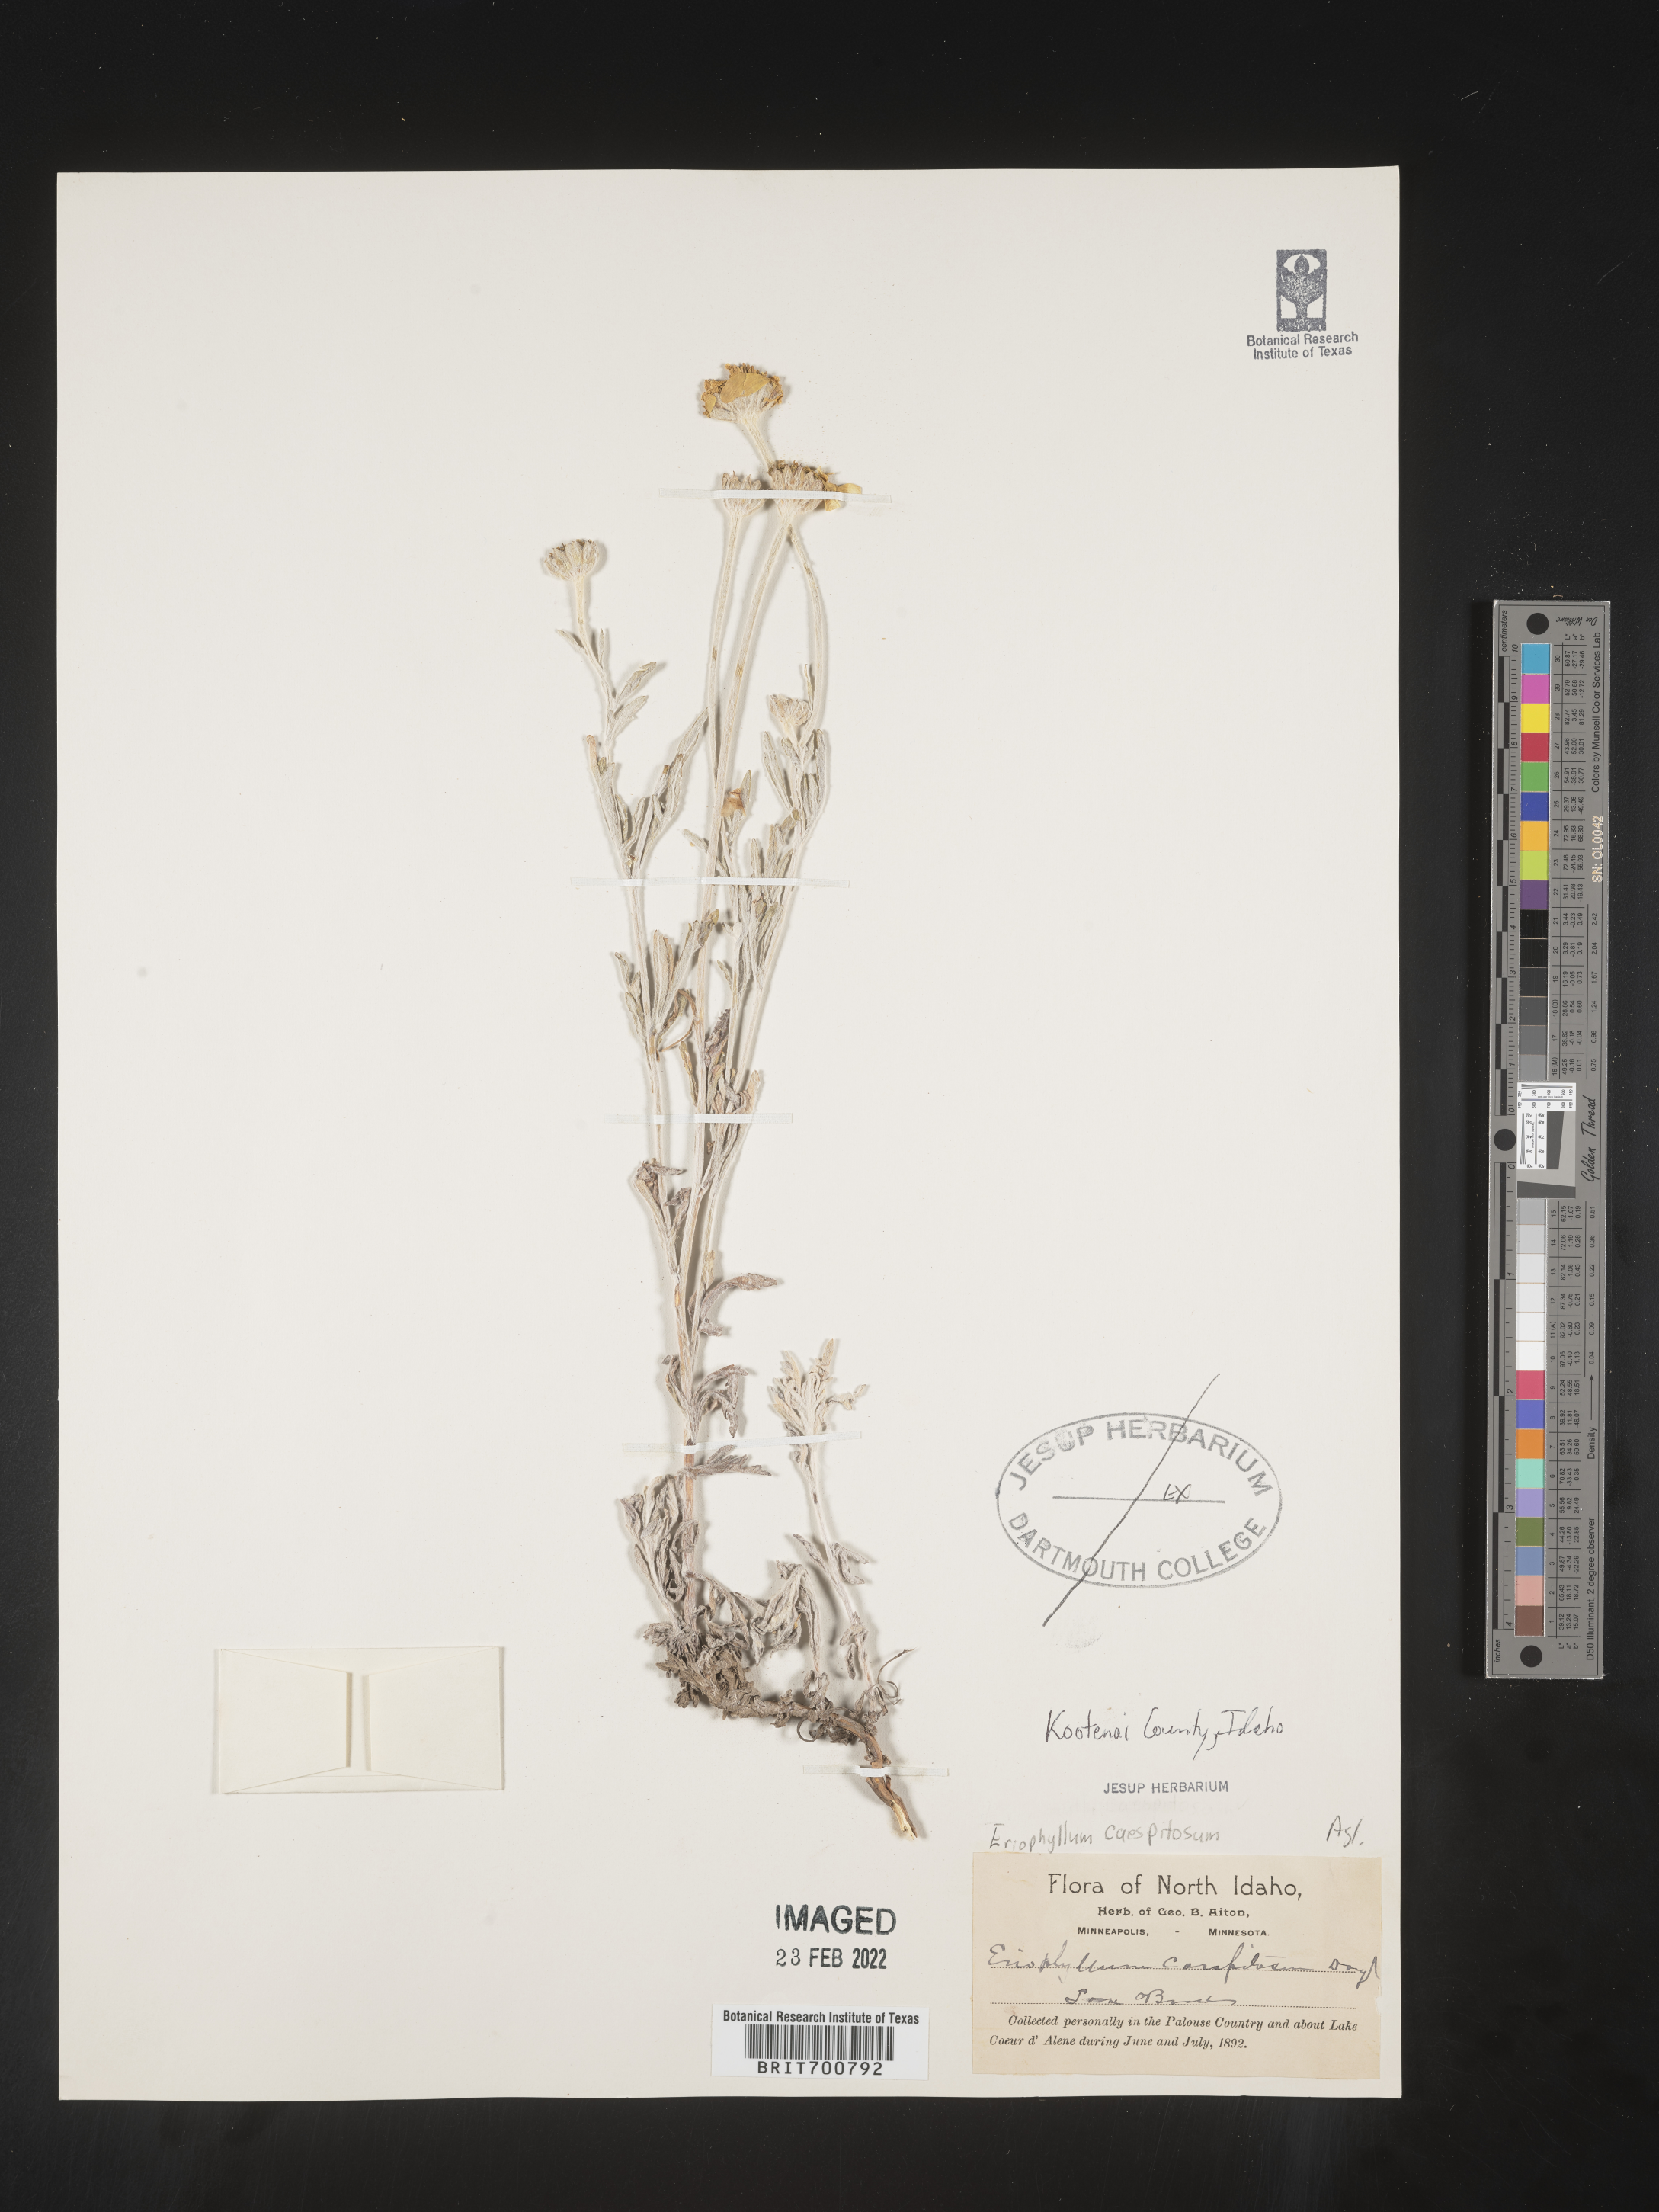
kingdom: Plantae
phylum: Tracheophyta
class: Magnoliopsida
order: Asterales
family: Asteraceae
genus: Eriophyllum
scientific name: Eriophyllum lanatum
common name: Common woolly-sunflower
